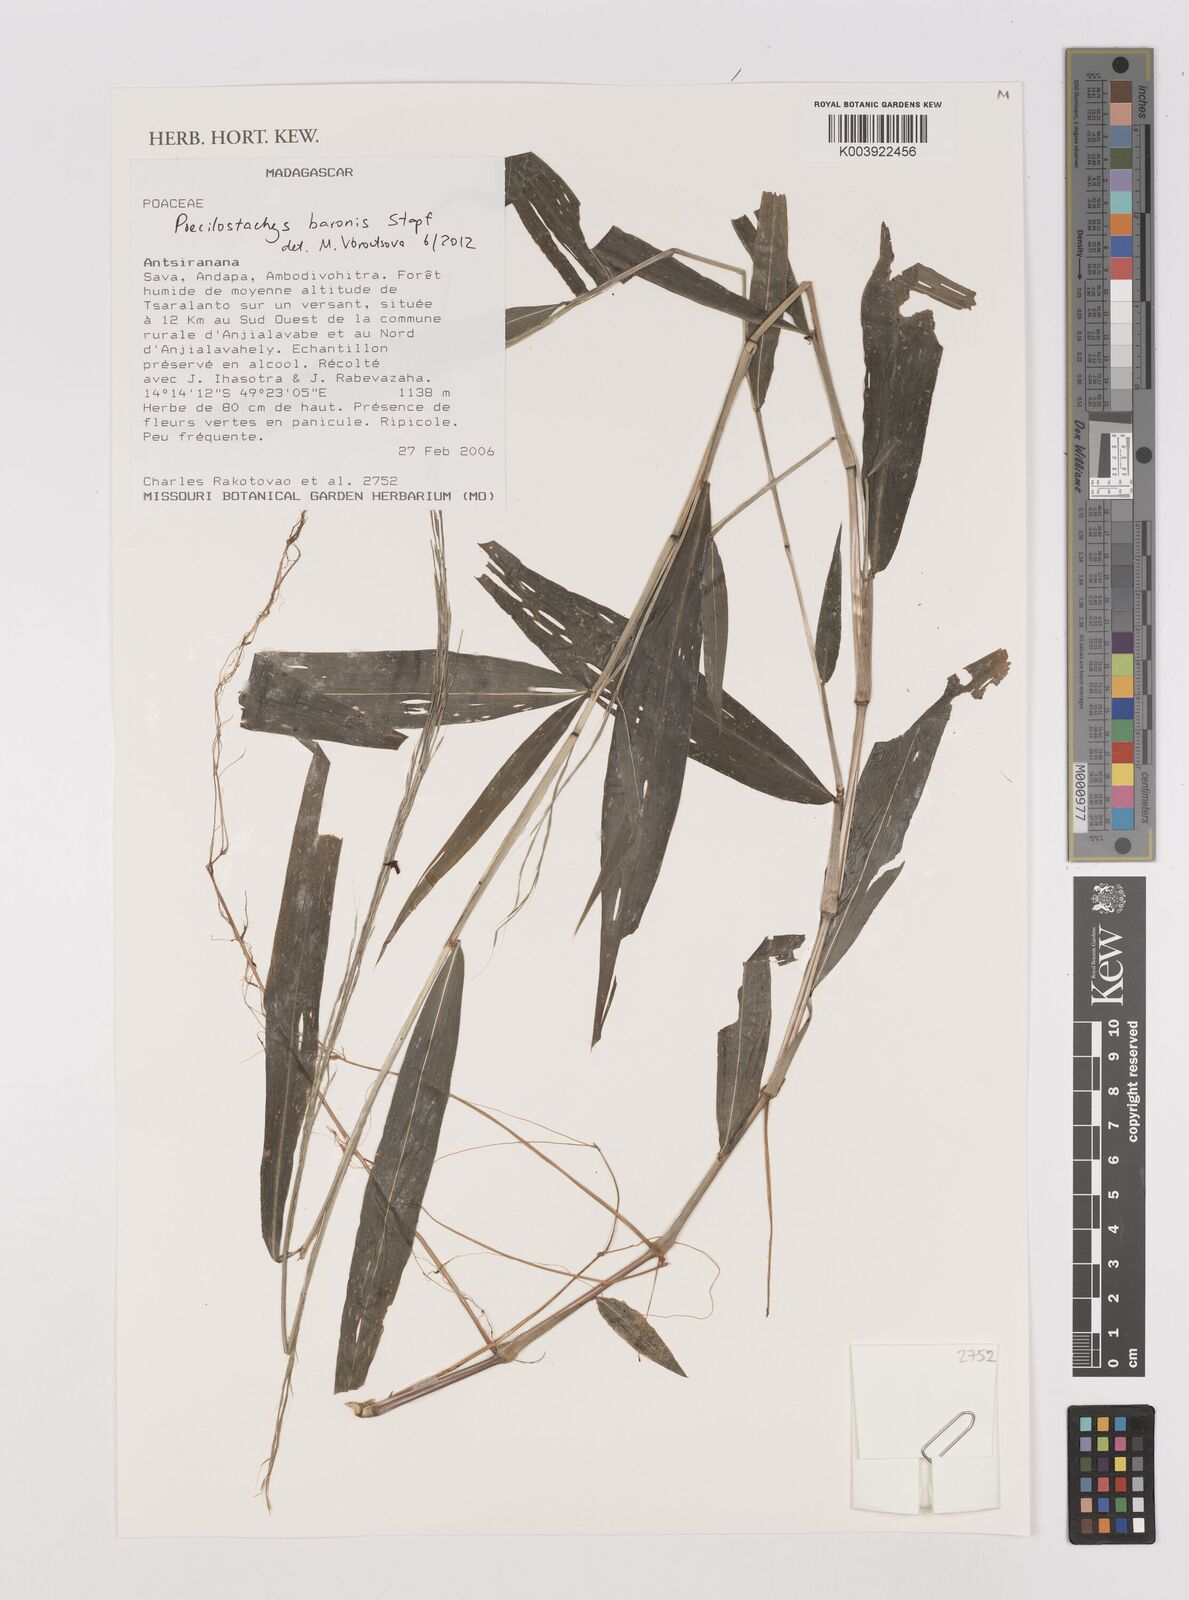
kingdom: Plantae
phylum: Tracheophyta
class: Liliopsida
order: Poales
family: Poaceae
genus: Poecilostachys
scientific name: Poecilostachys baronis
